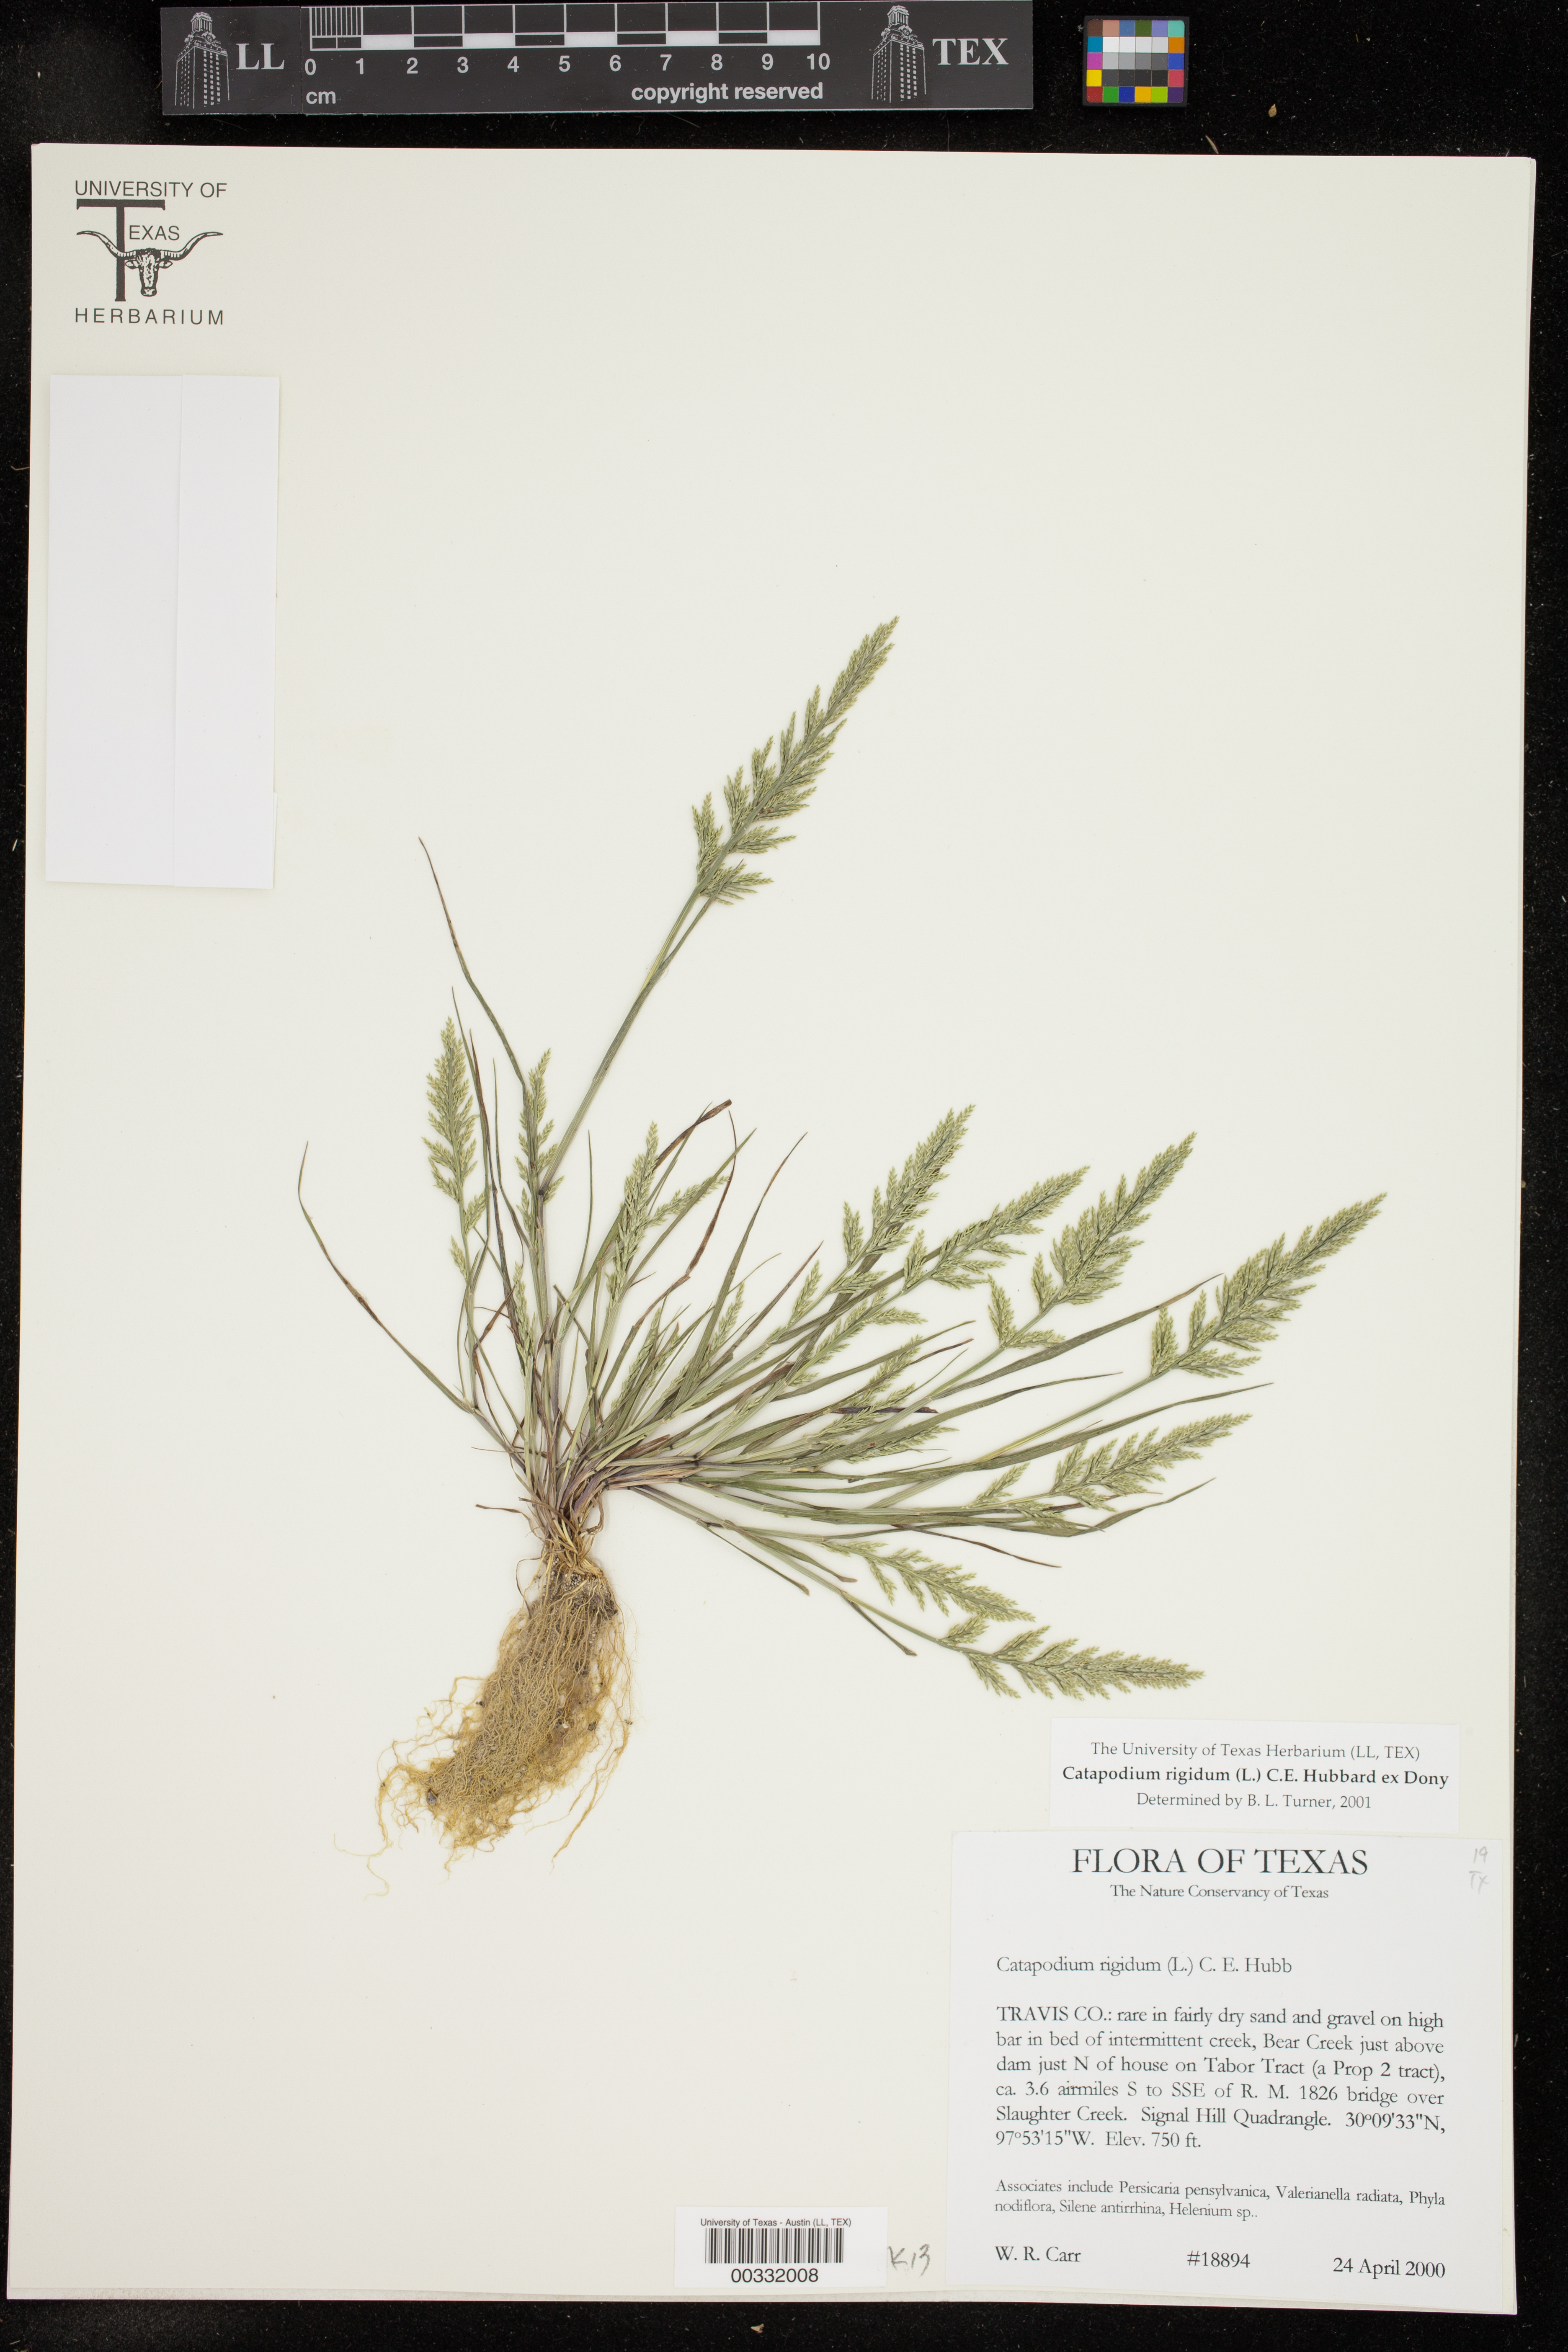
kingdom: Plantae
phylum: Tracheophyta
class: Liliopsida
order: Poales
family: Poaceae
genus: Catapodium
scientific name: Catapodium rigidum
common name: Fern-grass
